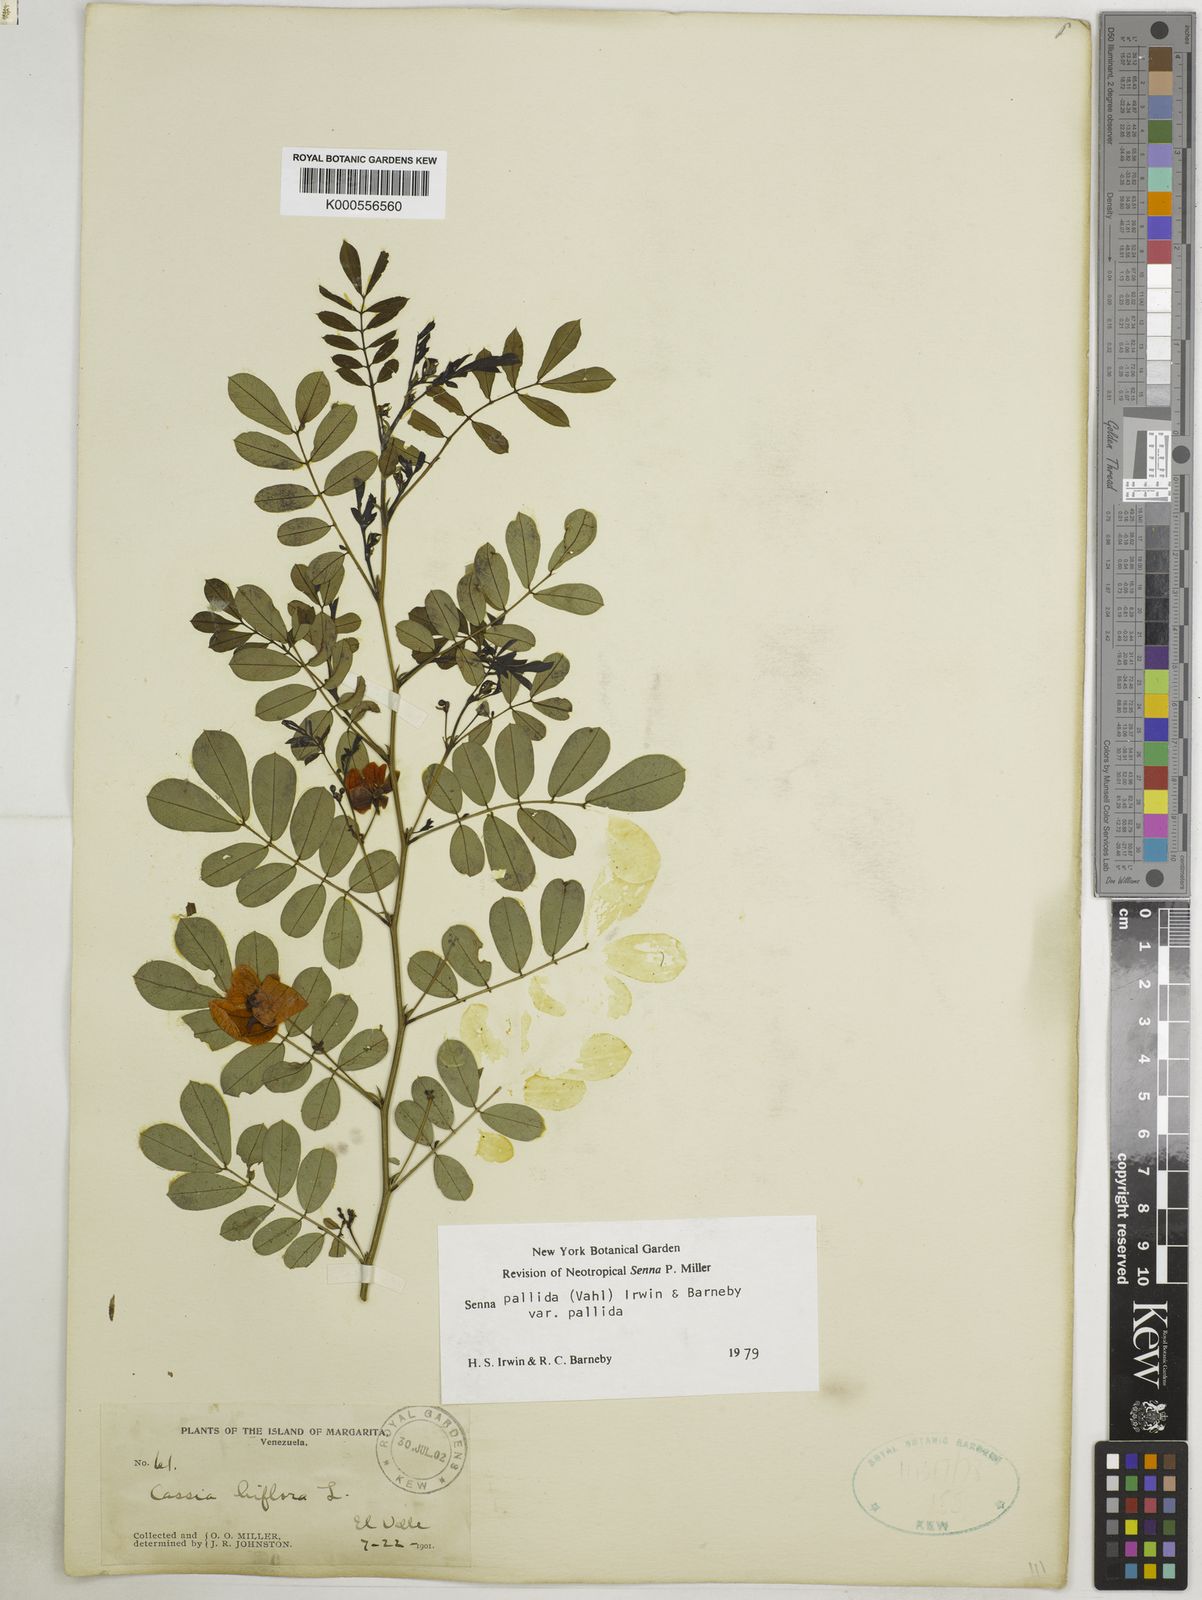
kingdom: Plantae
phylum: Tracheophyta
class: Magnoliopsida
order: Fabales
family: Fabaceae
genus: Senna
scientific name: Senna pallida
